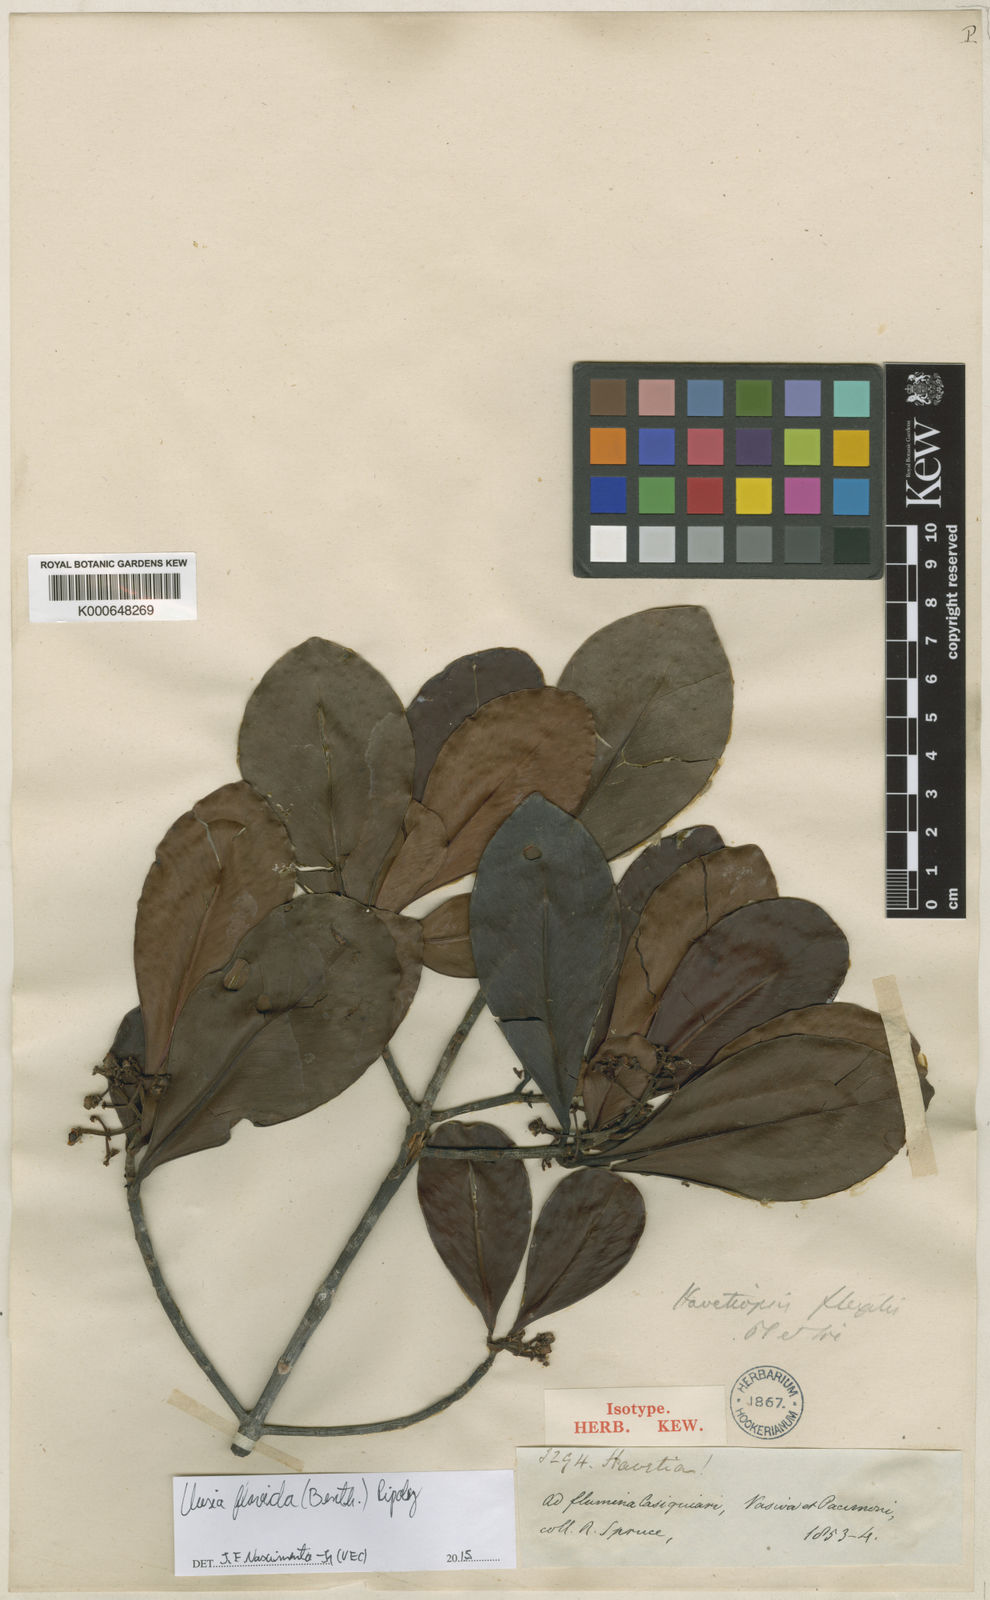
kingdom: Plantae
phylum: Tracheophyta
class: Magnoliopsida
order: Malpighiales
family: Clusiaceae
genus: Clusia
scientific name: Clusia flavida
